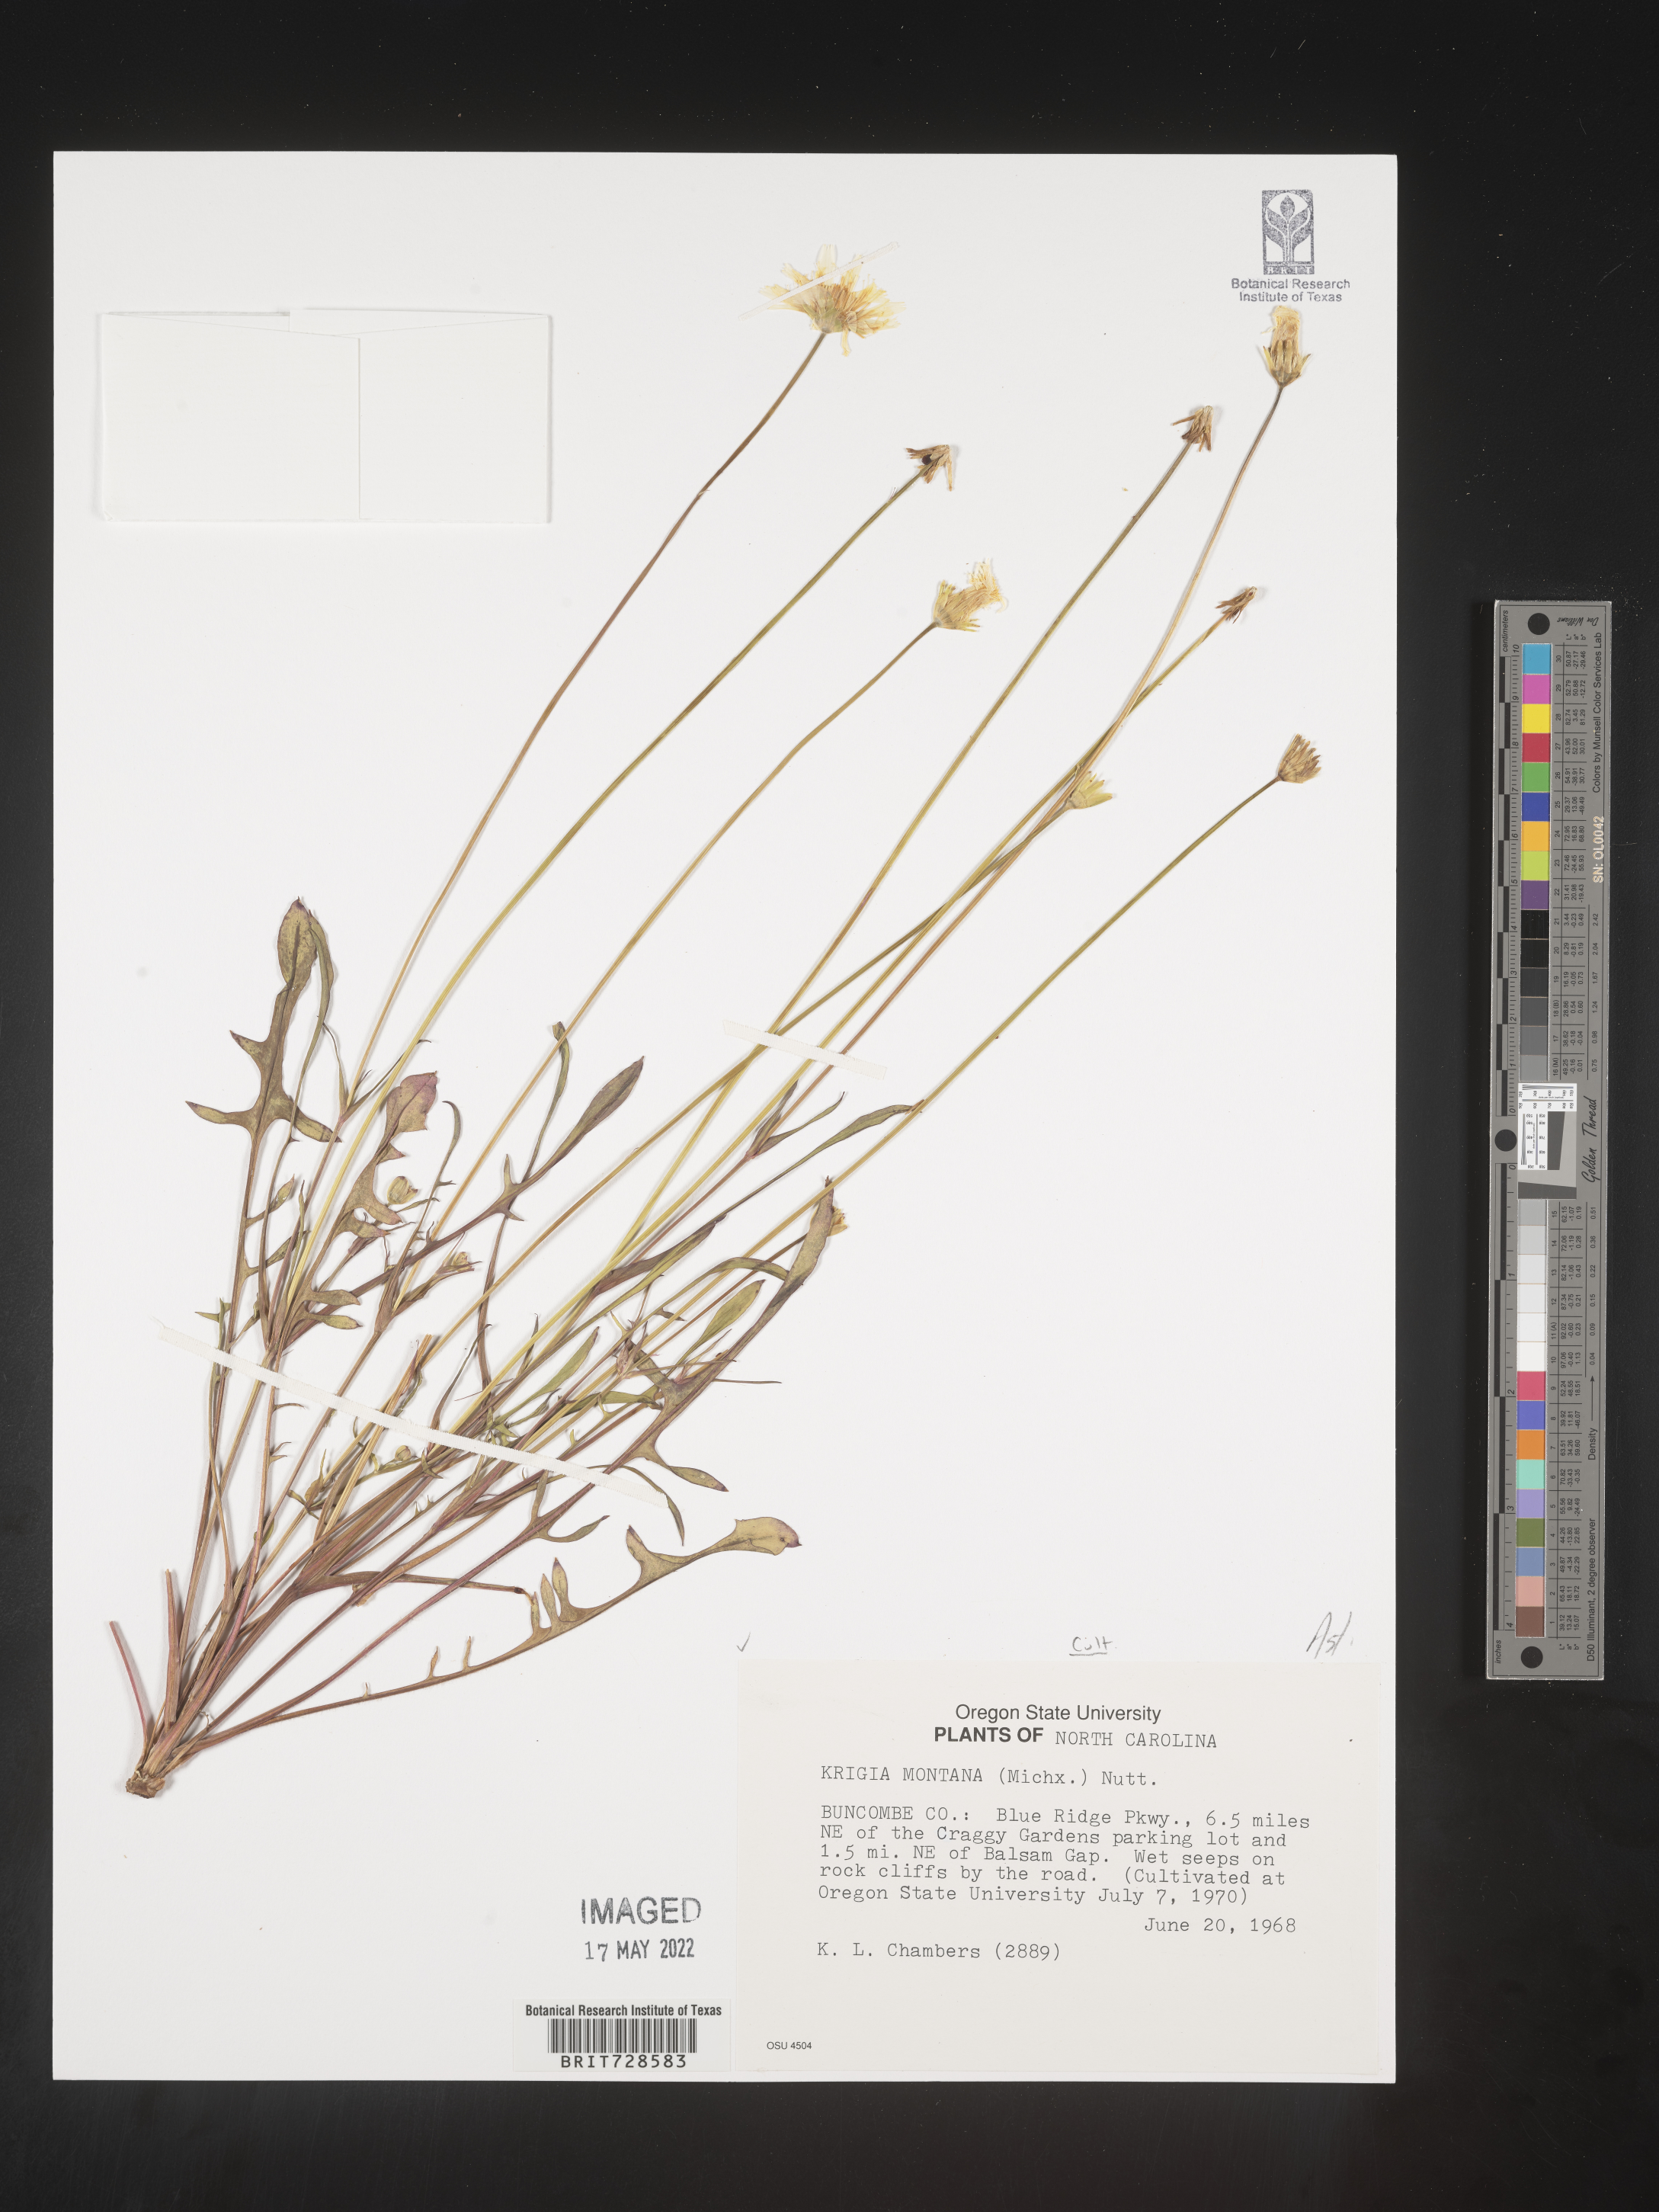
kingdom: Plantae
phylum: Tracheophyta
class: Magnoliopsida
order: Asterales
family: Asteraceae
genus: Krigia
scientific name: Krigia
